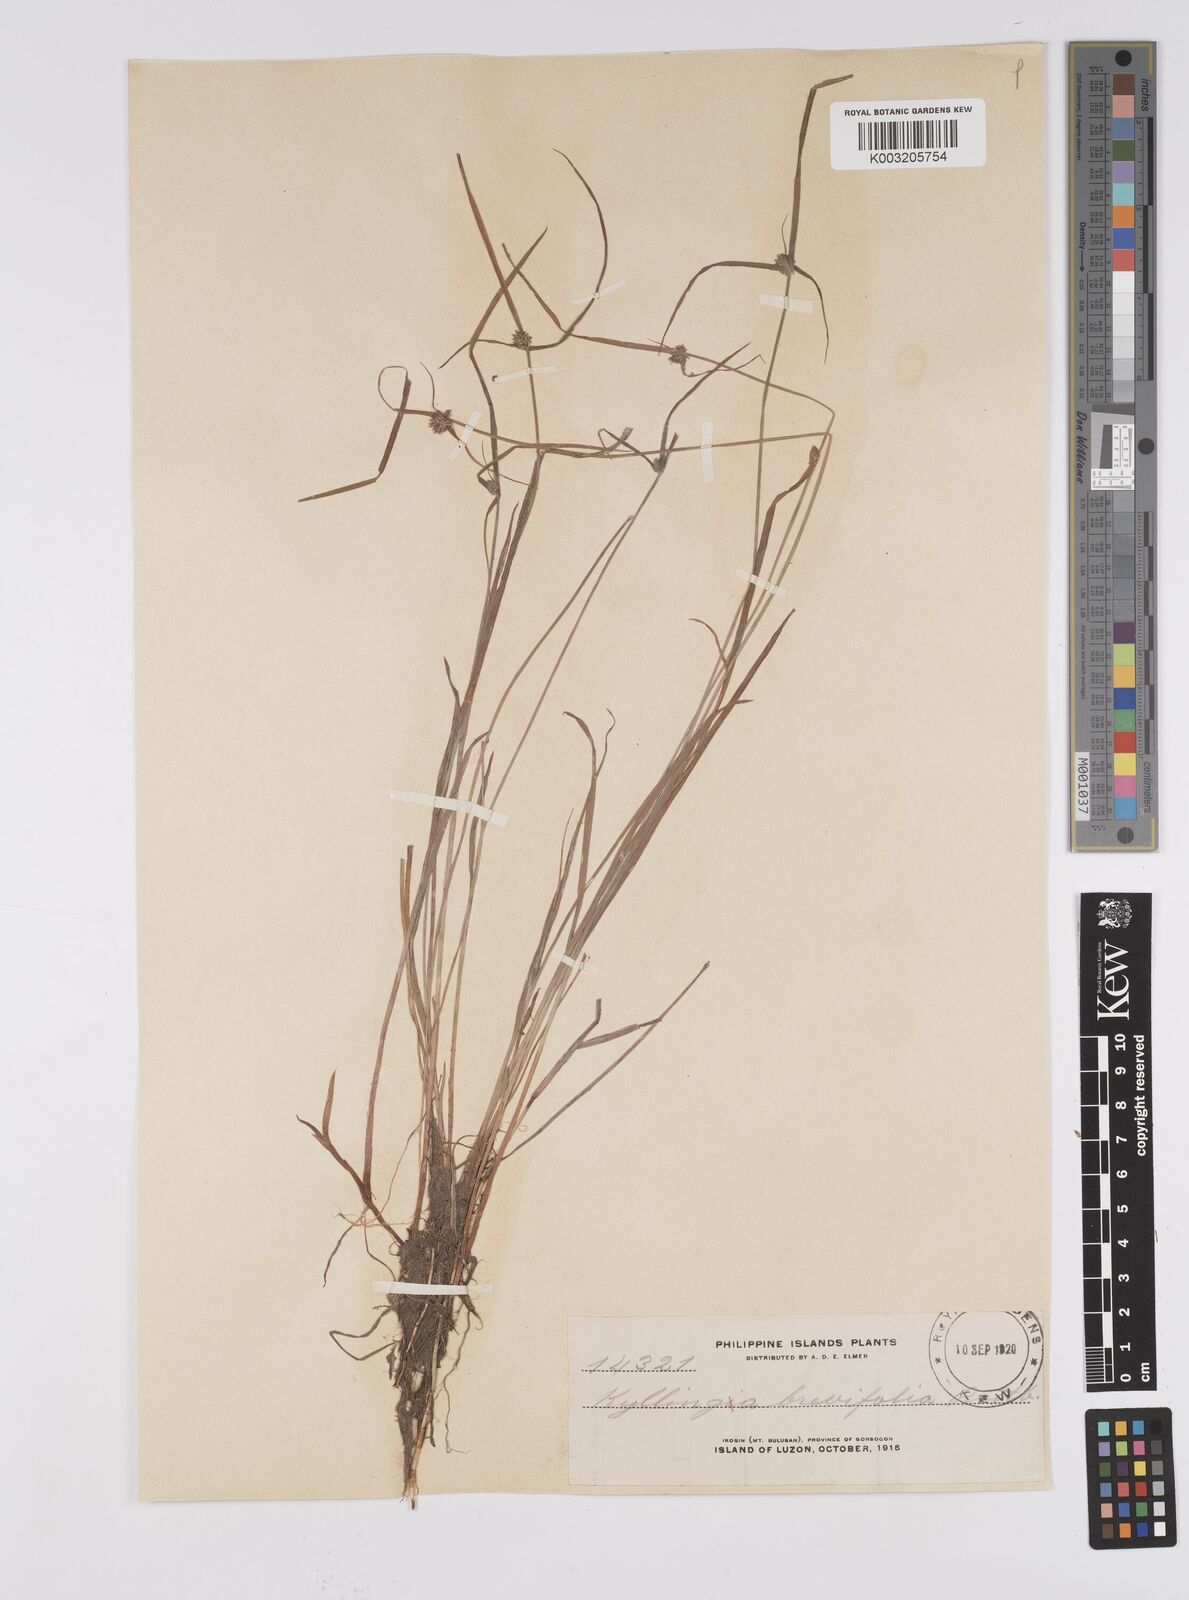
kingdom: Plantae
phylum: Tracheophyta
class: Liliopsida
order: Poales
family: Cyperaceae
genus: Cyperus
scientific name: Cyperus brevifolius
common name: Globe kyllinga
